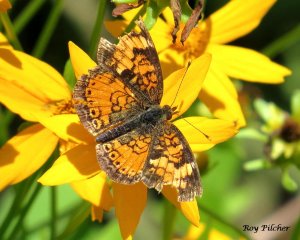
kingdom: Animalia
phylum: Arthropoda
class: Insecta
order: Lepidoptera
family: Nymphalidae
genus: Phyciodes
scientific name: Phyciodes tharos
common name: Northern Crescent
